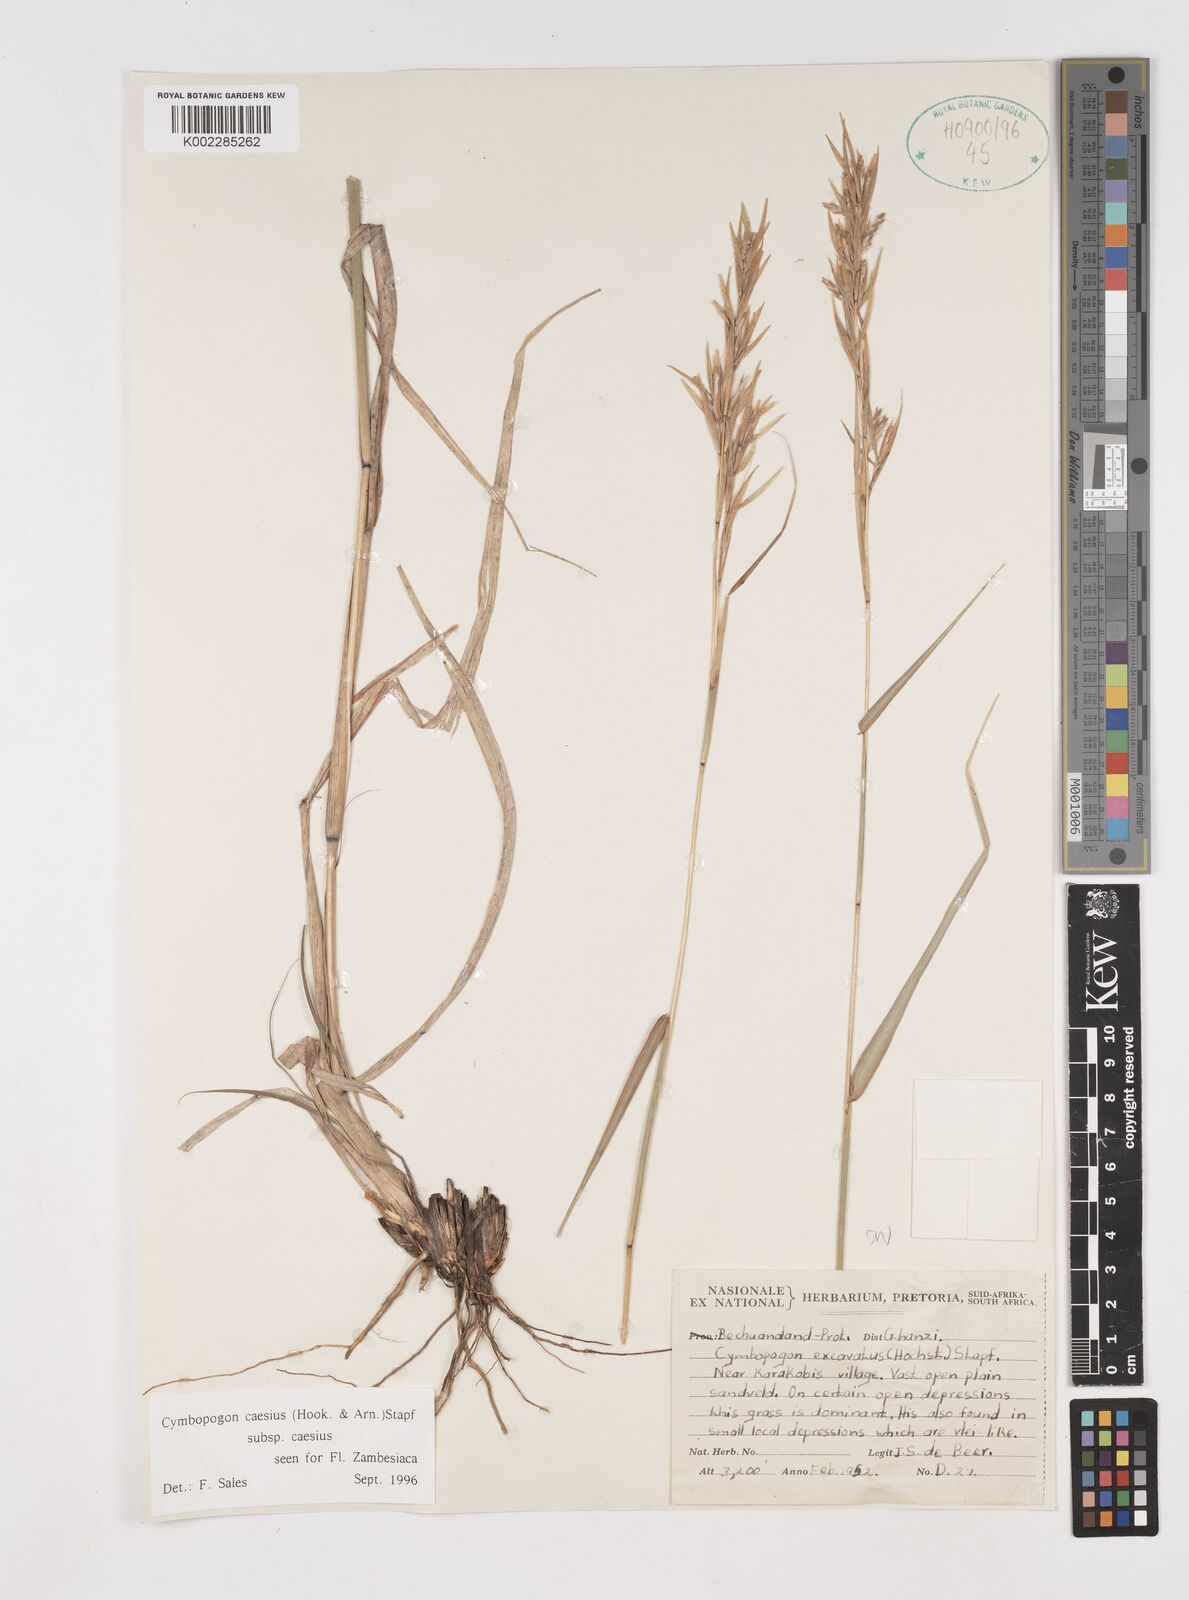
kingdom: Plantae
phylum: Tracheophyta
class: Liliopsida
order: Poales
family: Poaceae
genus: Cymbopogon
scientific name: Cymbopogon caesius
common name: Kachi grass
